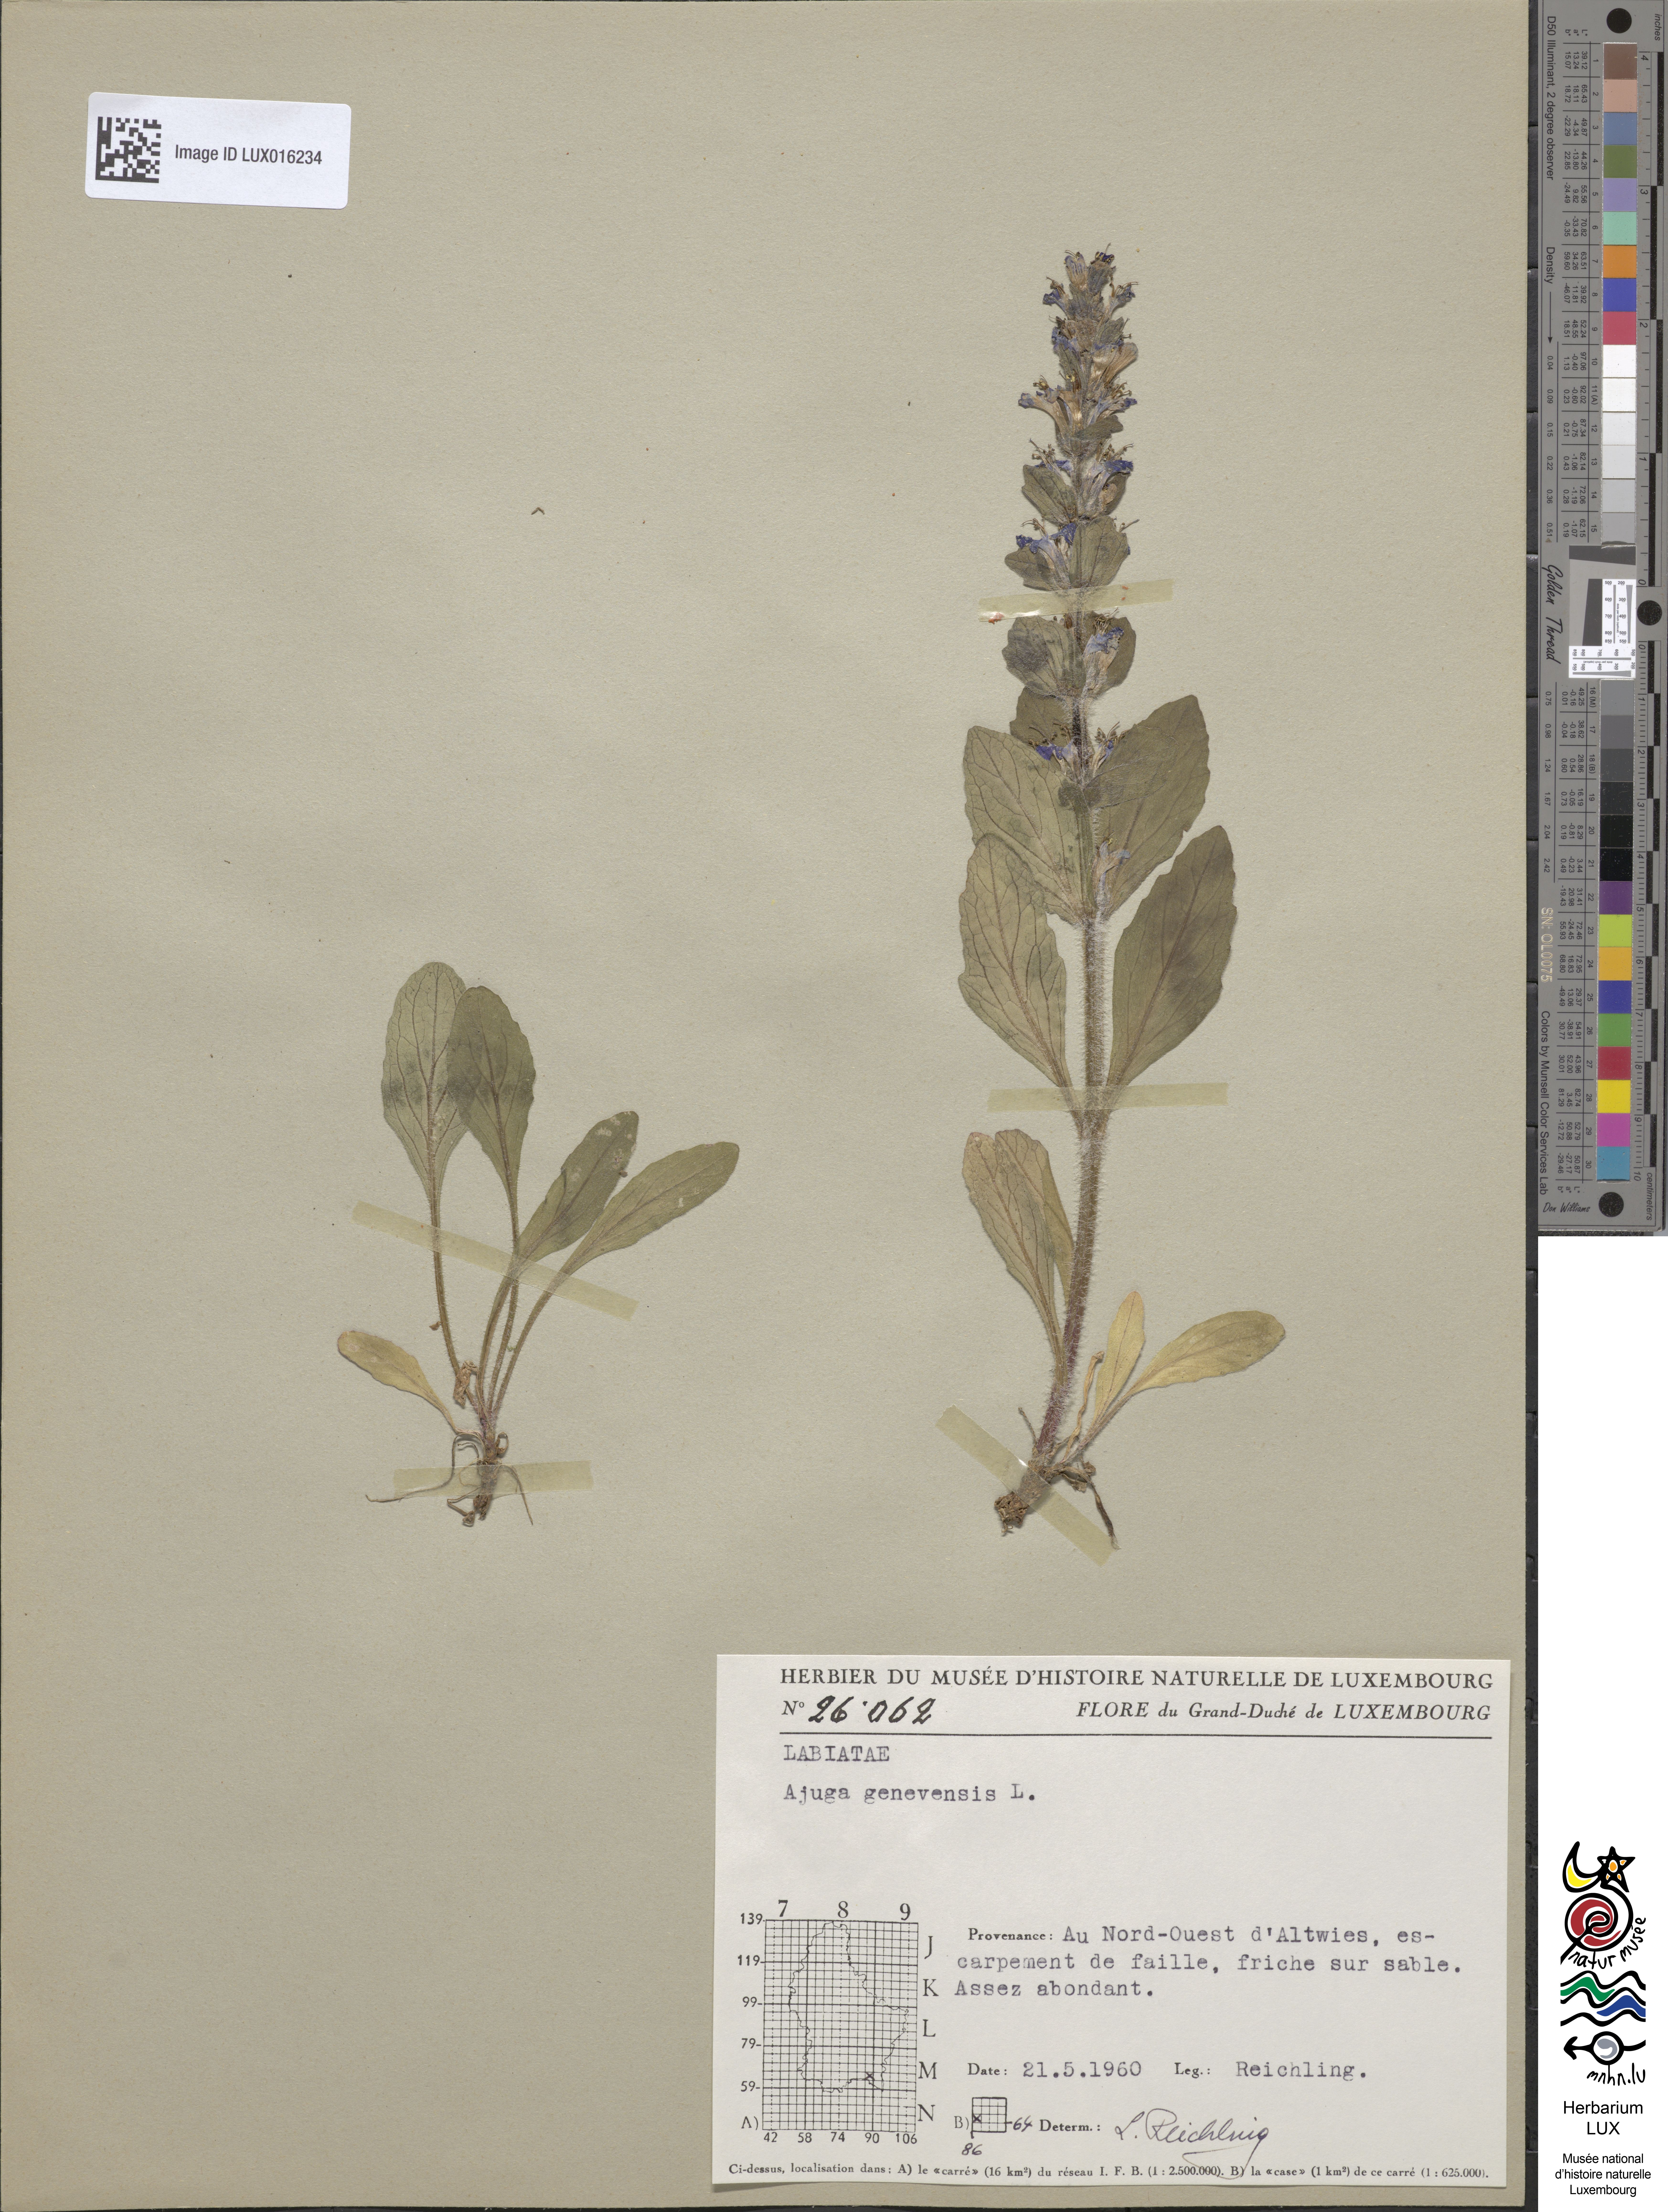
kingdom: Plantae
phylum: Tracheophyta
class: Magnoliopsida
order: Lamiales
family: Lamiaceae
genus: Ajuga
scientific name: Ajuga genevensis
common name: Blue bugle
